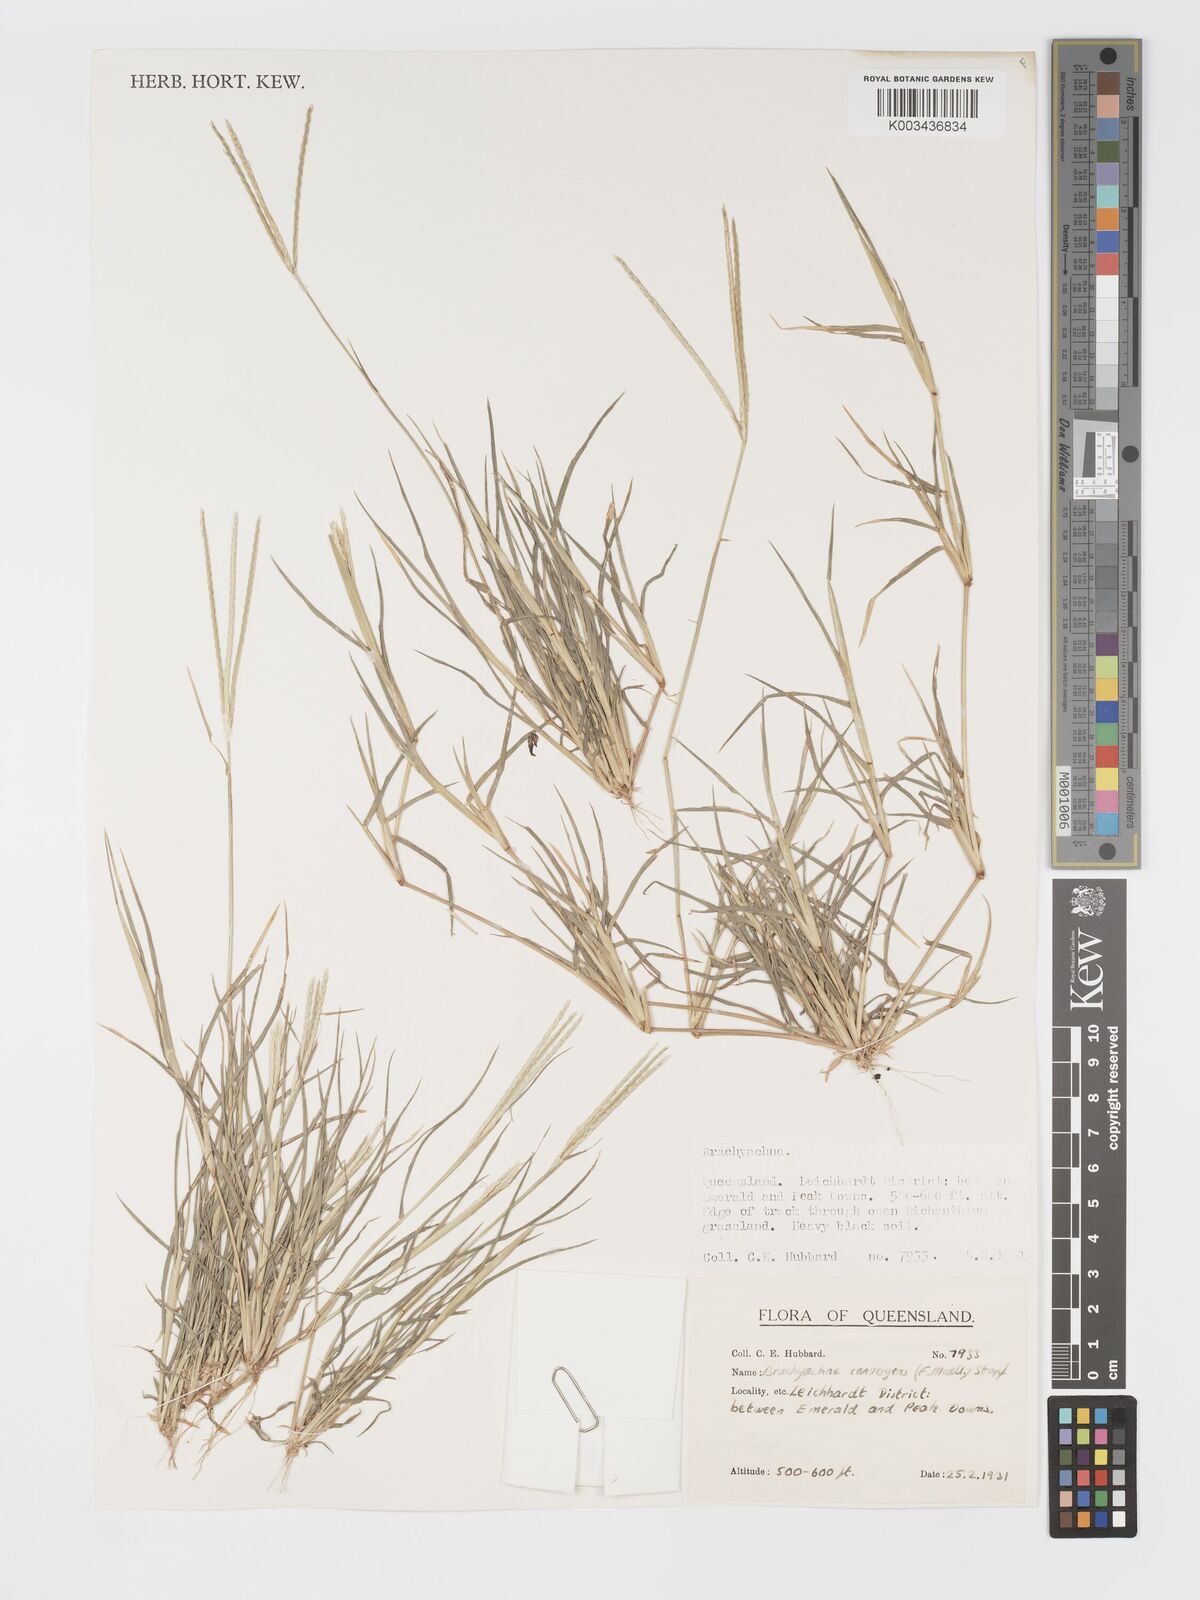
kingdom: Plantae
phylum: Tracheophyta
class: Liliopsida
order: Poales
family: Poaceae
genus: Cynodon
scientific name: Cynodon convergens
